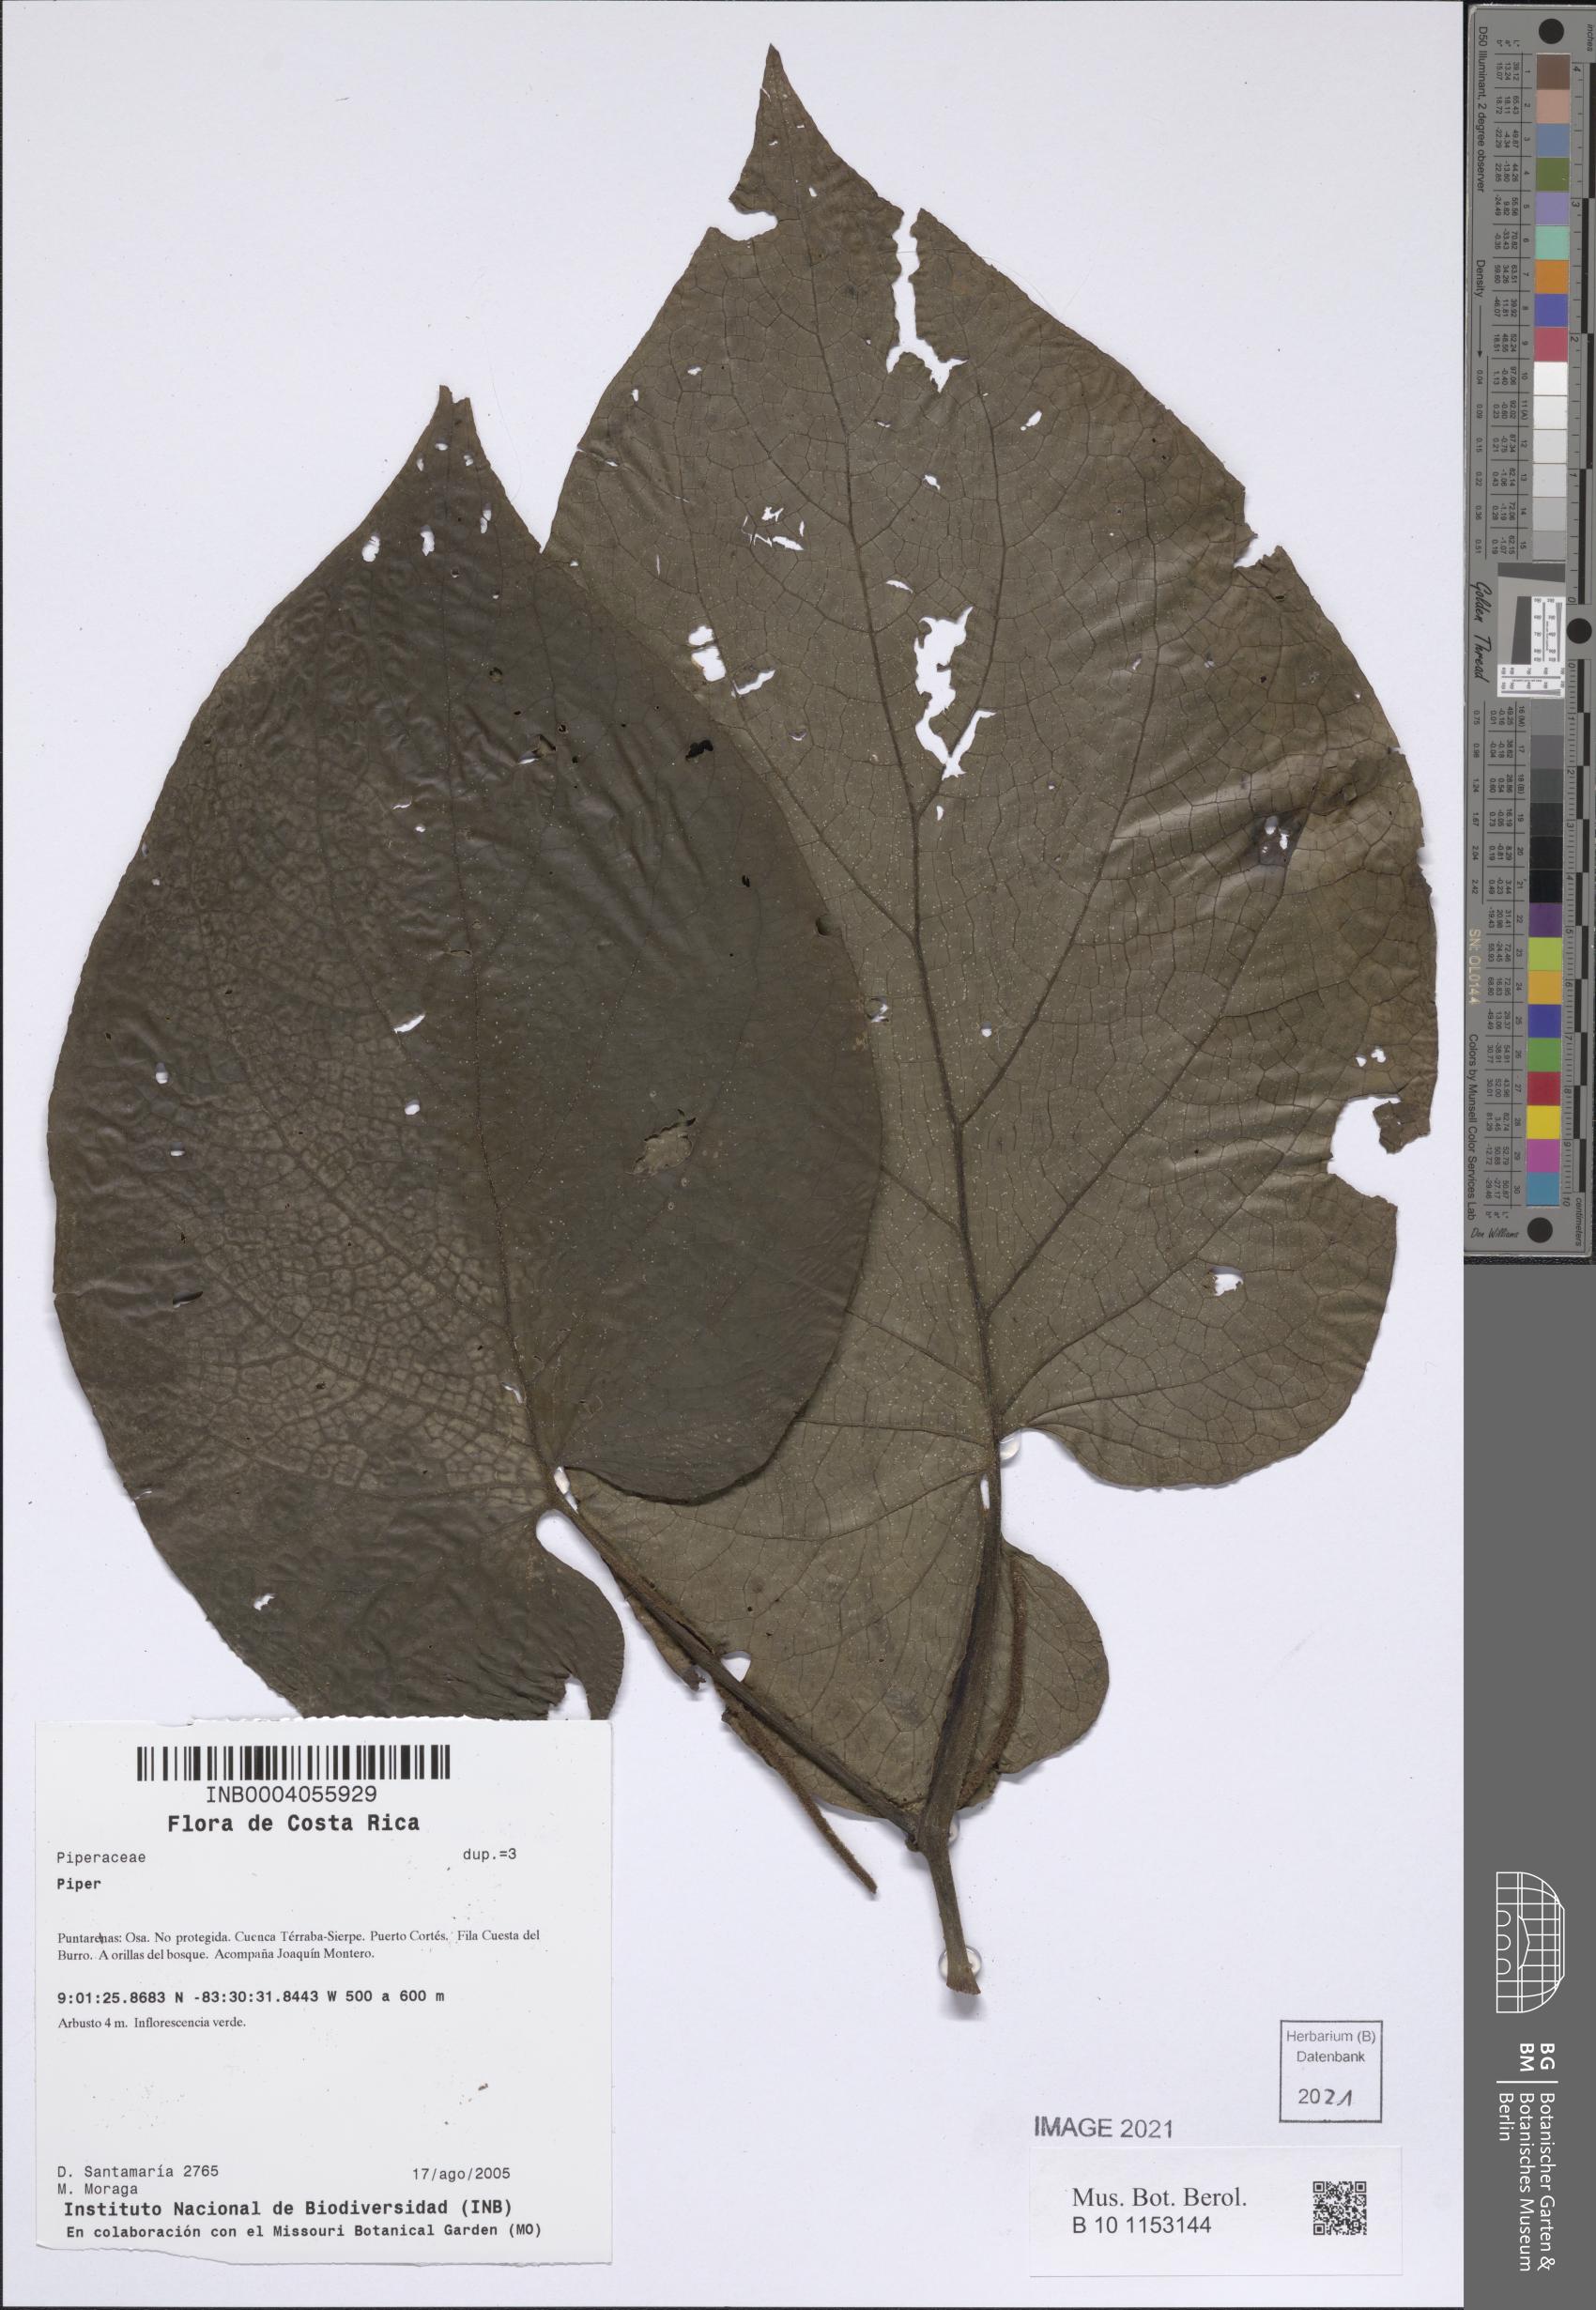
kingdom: Plantae
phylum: Tracheophyta
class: Magnoliopsida
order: Piperales
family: Piperaceae
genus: Piper
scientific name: Piper
